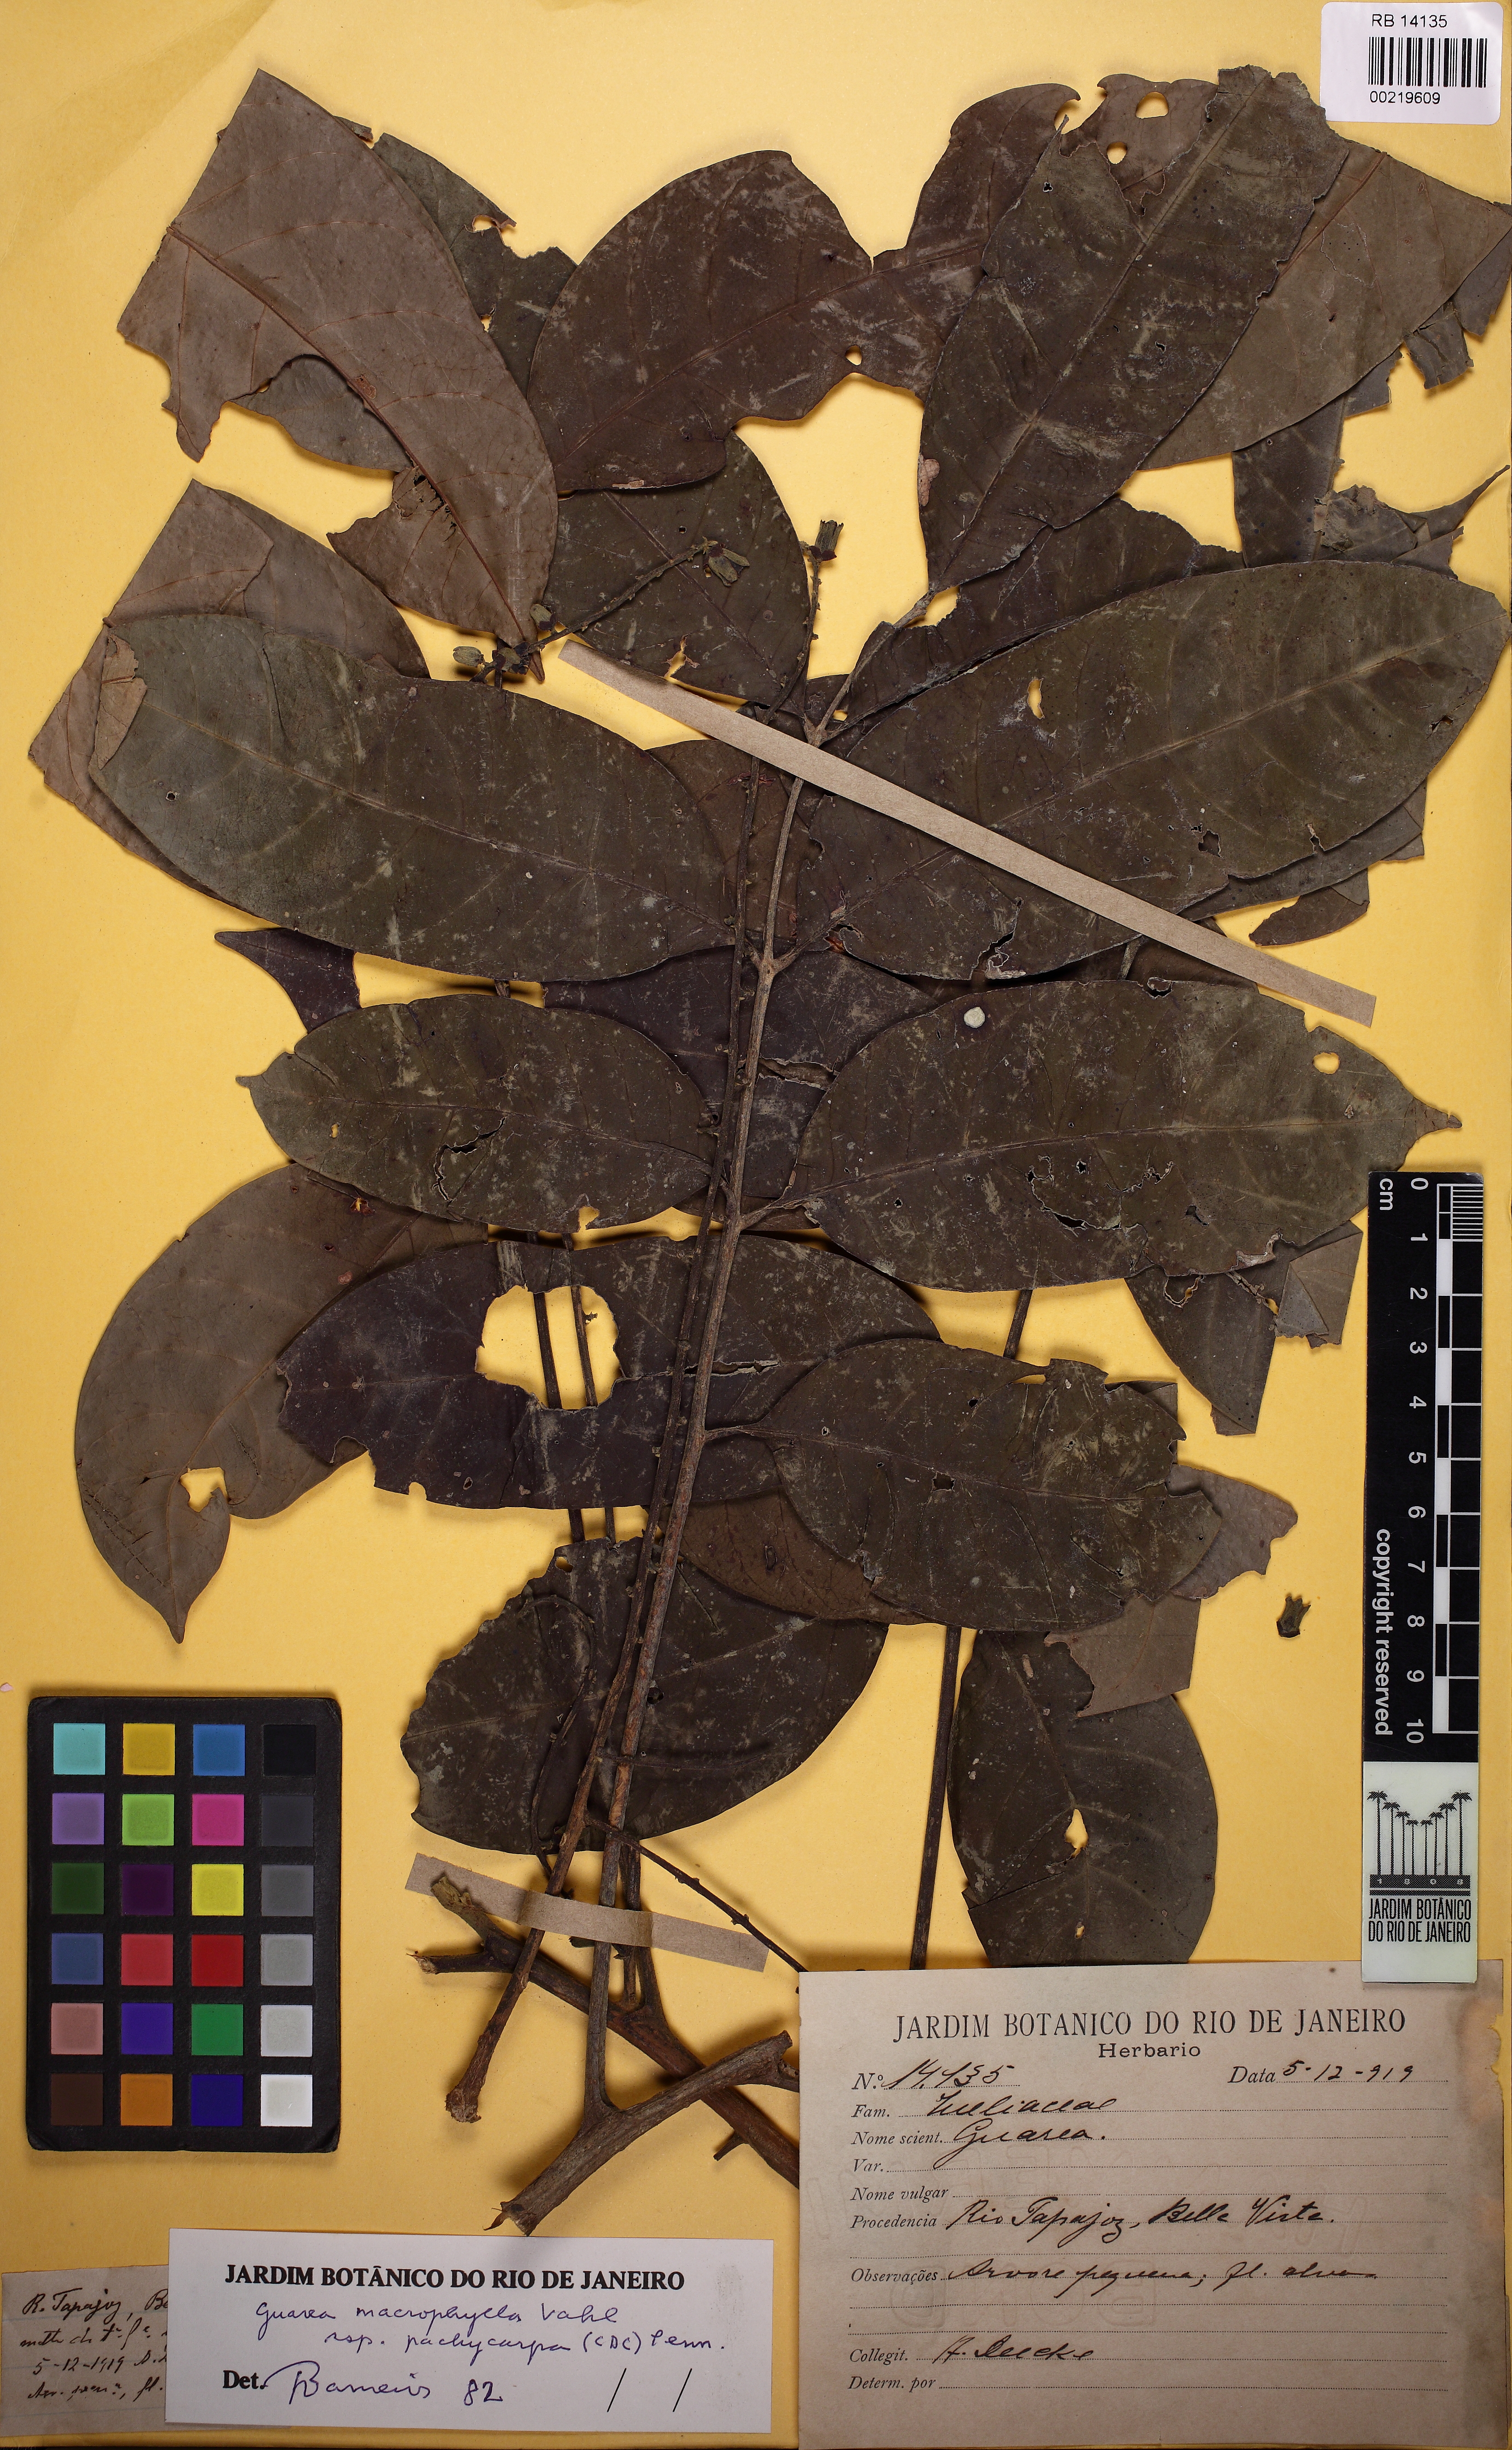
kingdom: Plantae
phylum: Tracheophyta
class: Magnoliopsida
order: Sapindales
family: Meliaceae
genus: Guarea
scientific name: Guarea macrophylla
